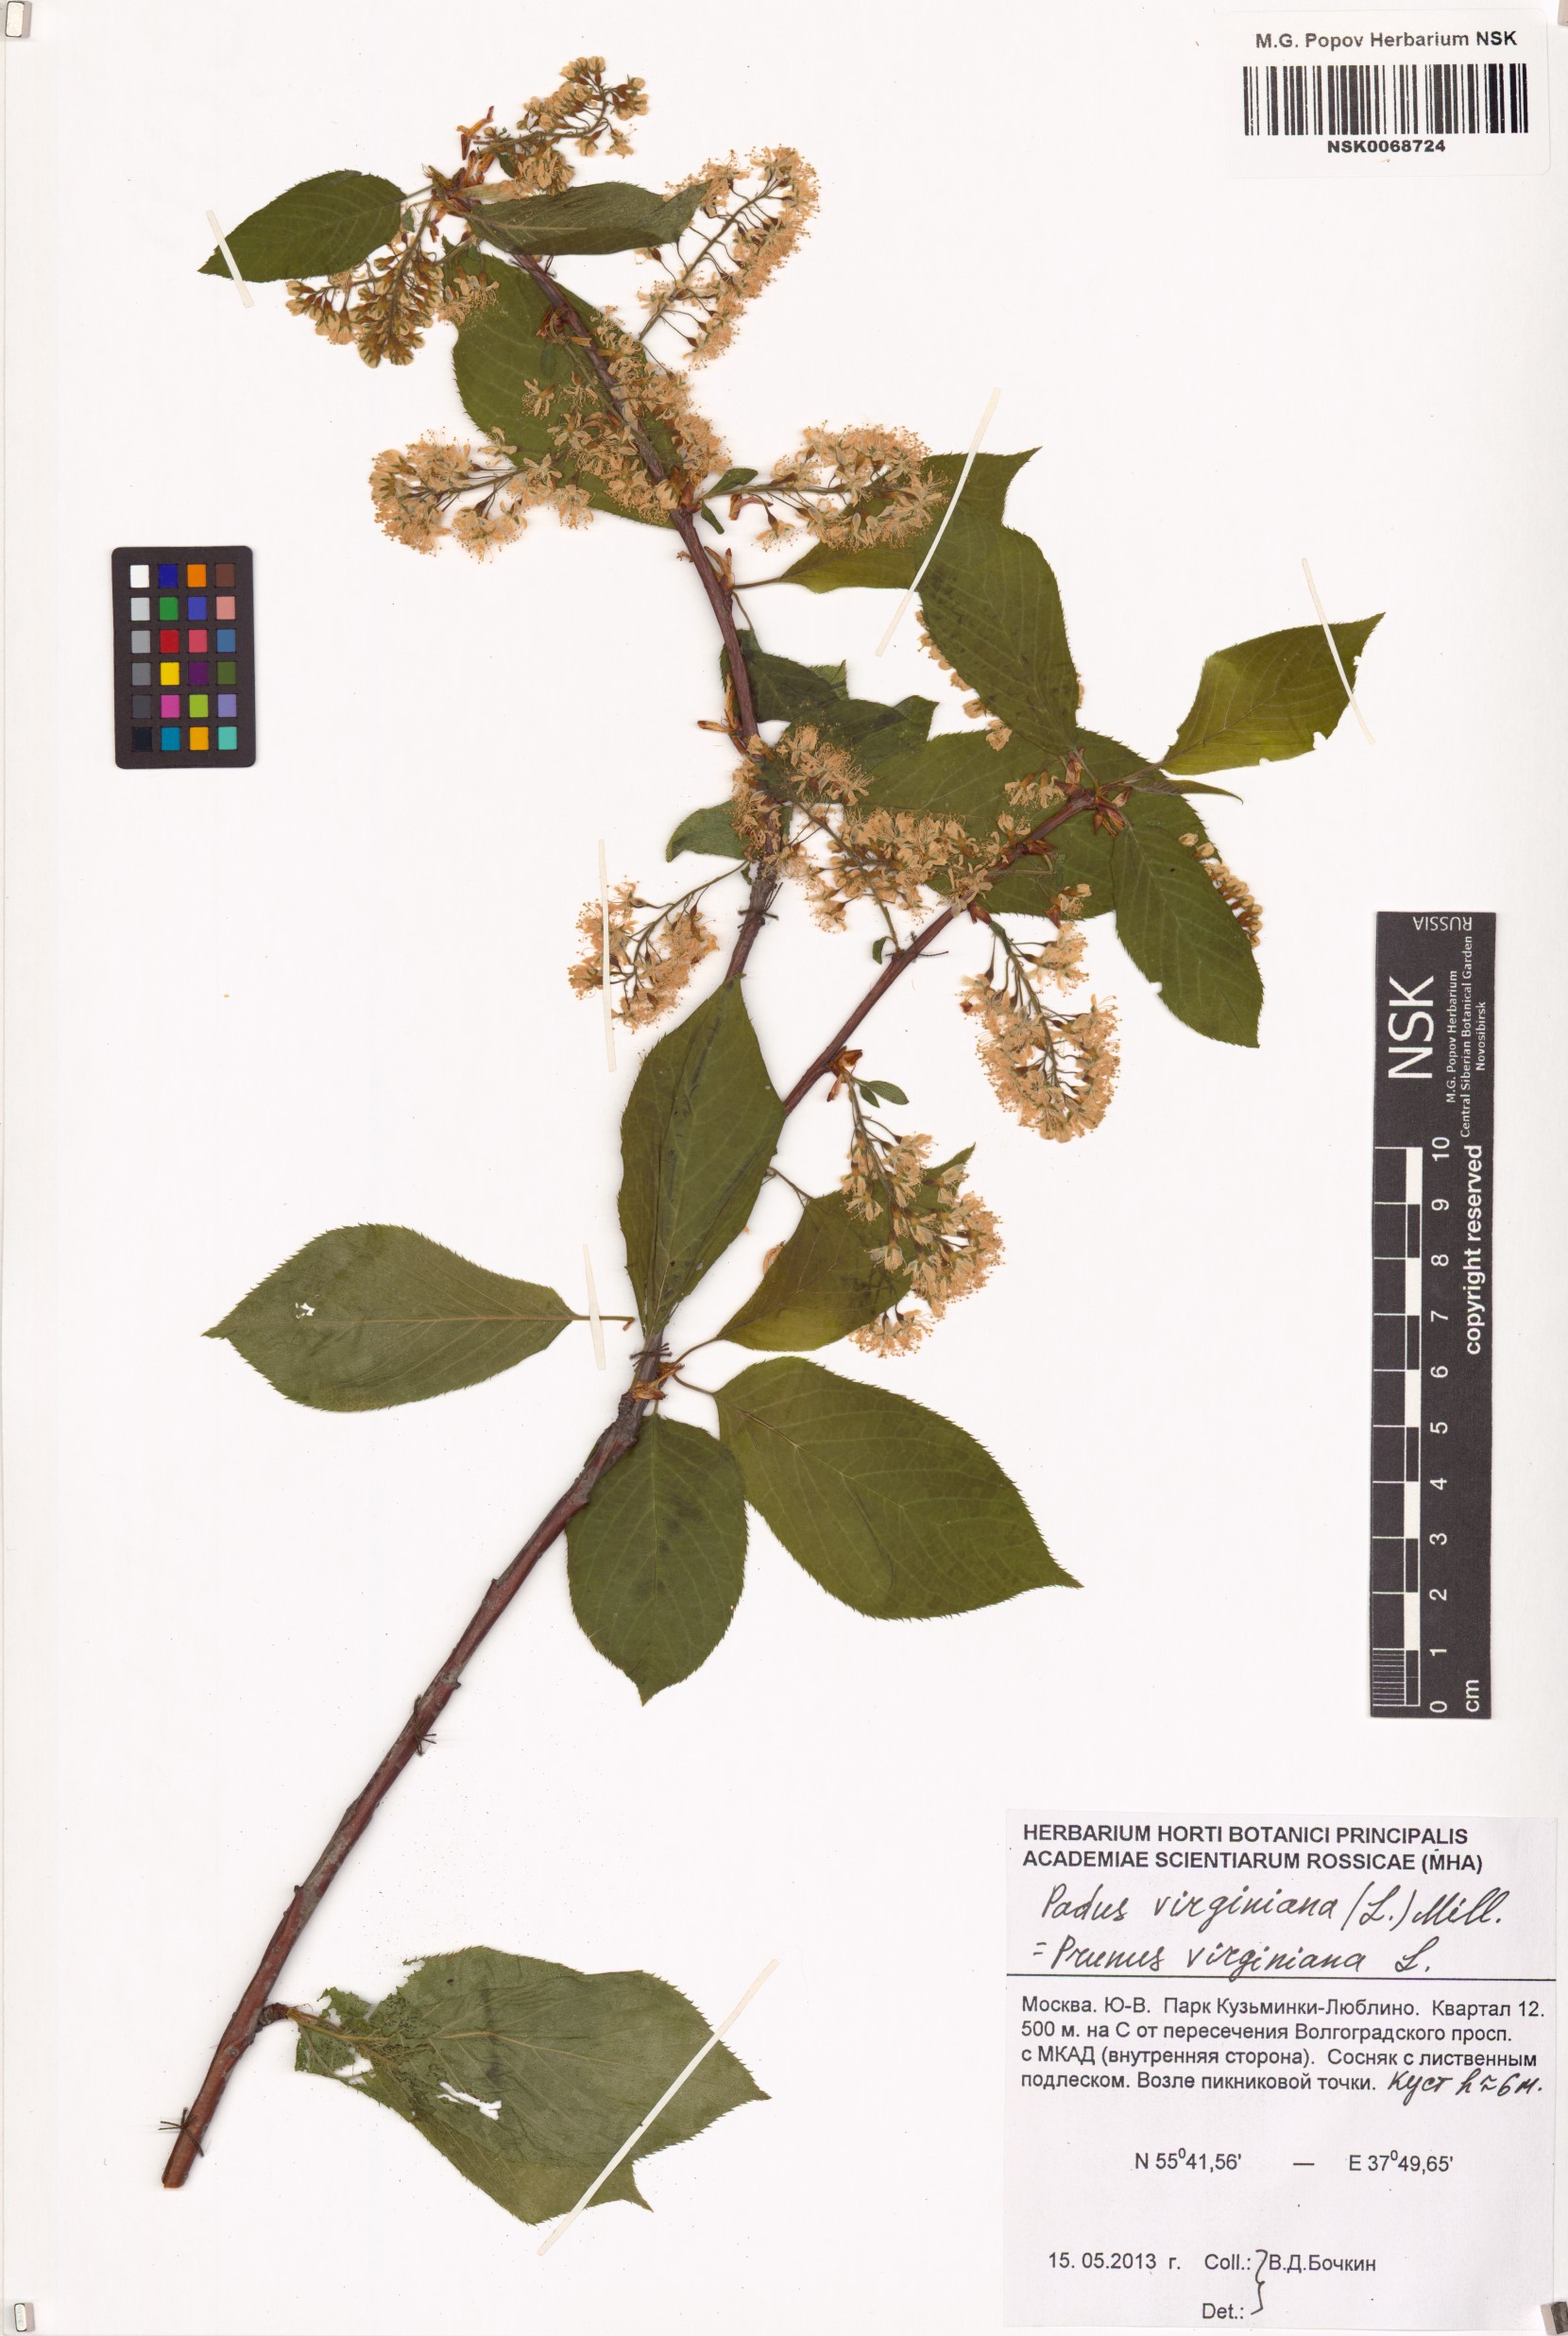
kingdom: Plantae
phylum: Tracheophyta
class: Magnoliopsida
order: Rosales
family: Rosaceae
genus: Prunus
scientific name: Prunus virginiana
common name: Chokecherry
